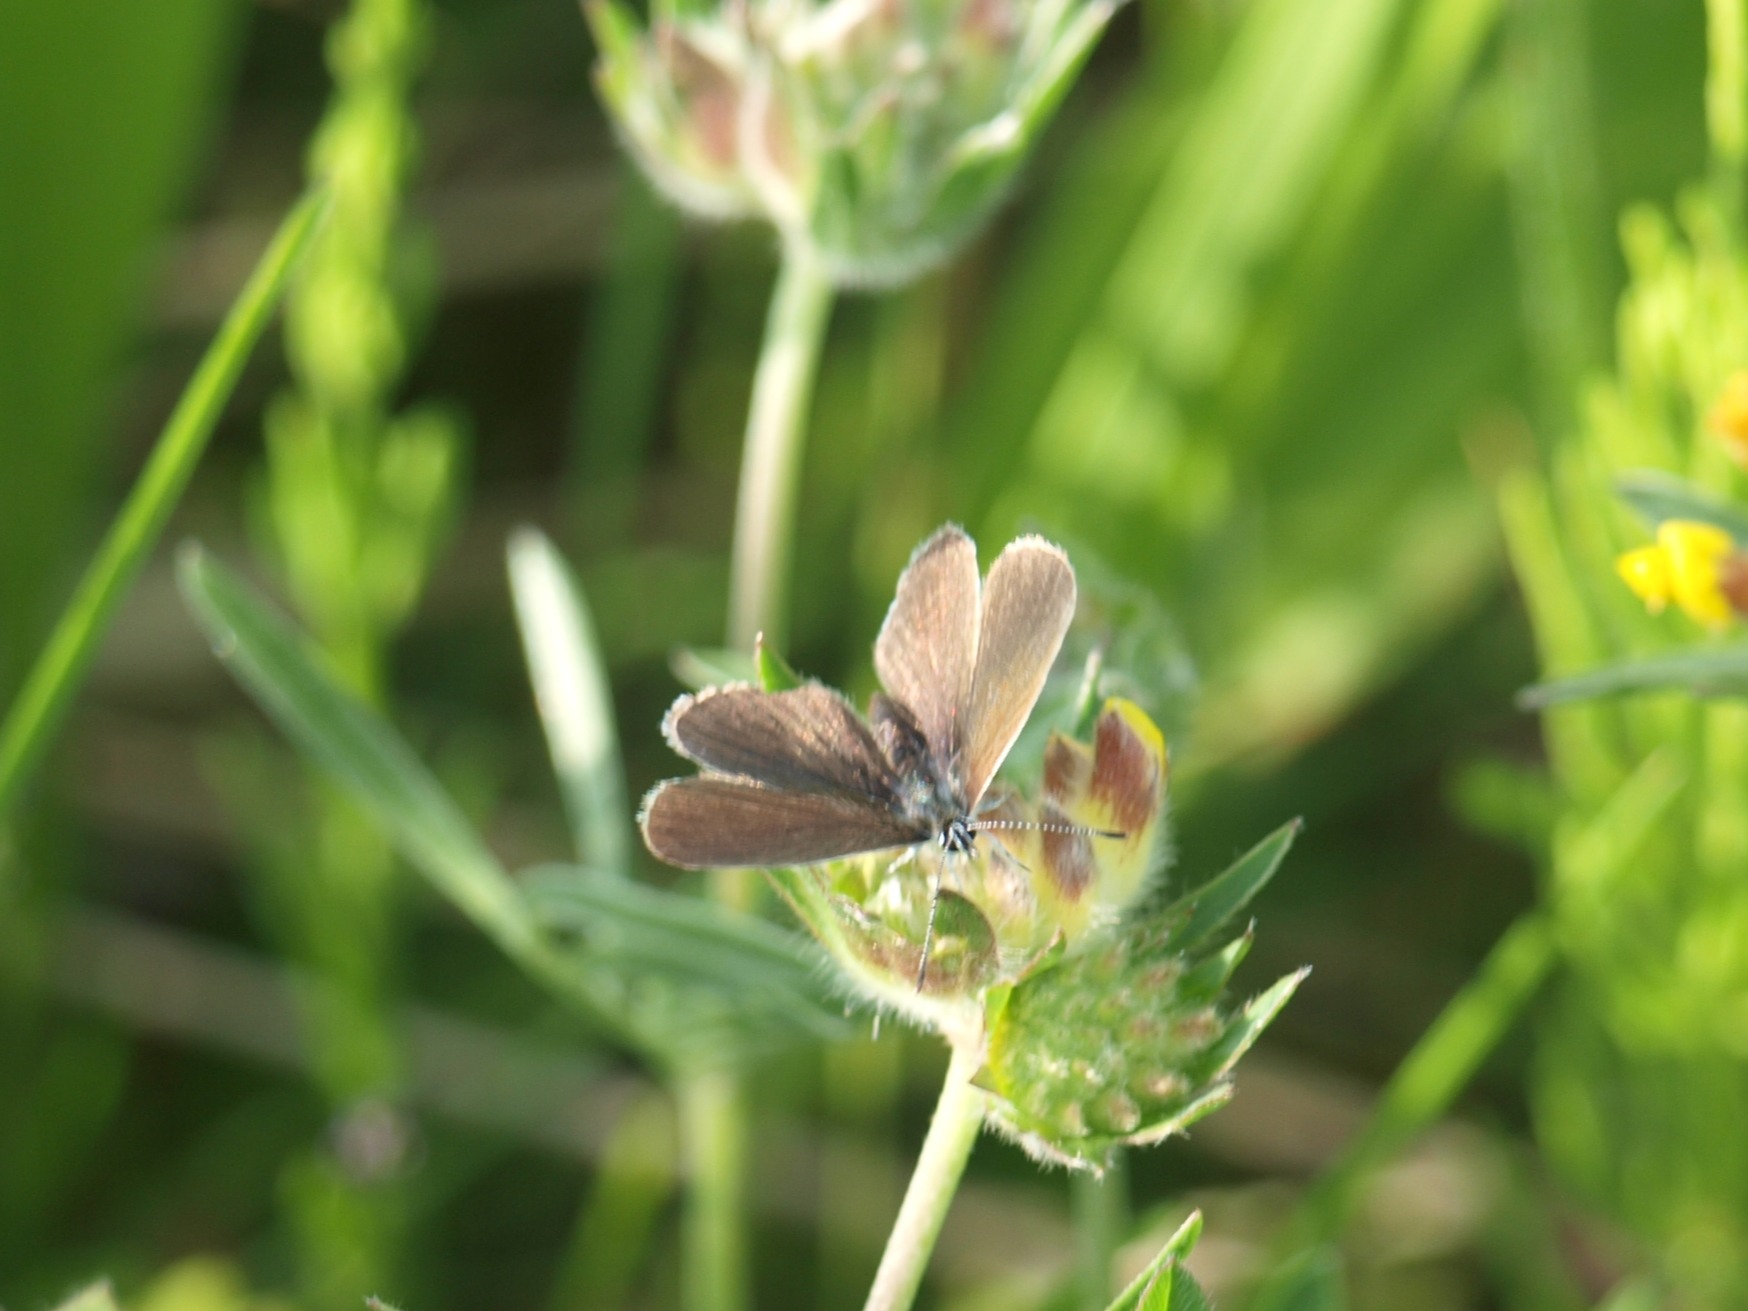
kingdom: Animalia
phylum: Arthropoda
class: Insecta
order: Lepidoptera
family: Lycaenidae
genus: Cupido
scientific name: Cupido minimus
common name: Dværgblåfugl
